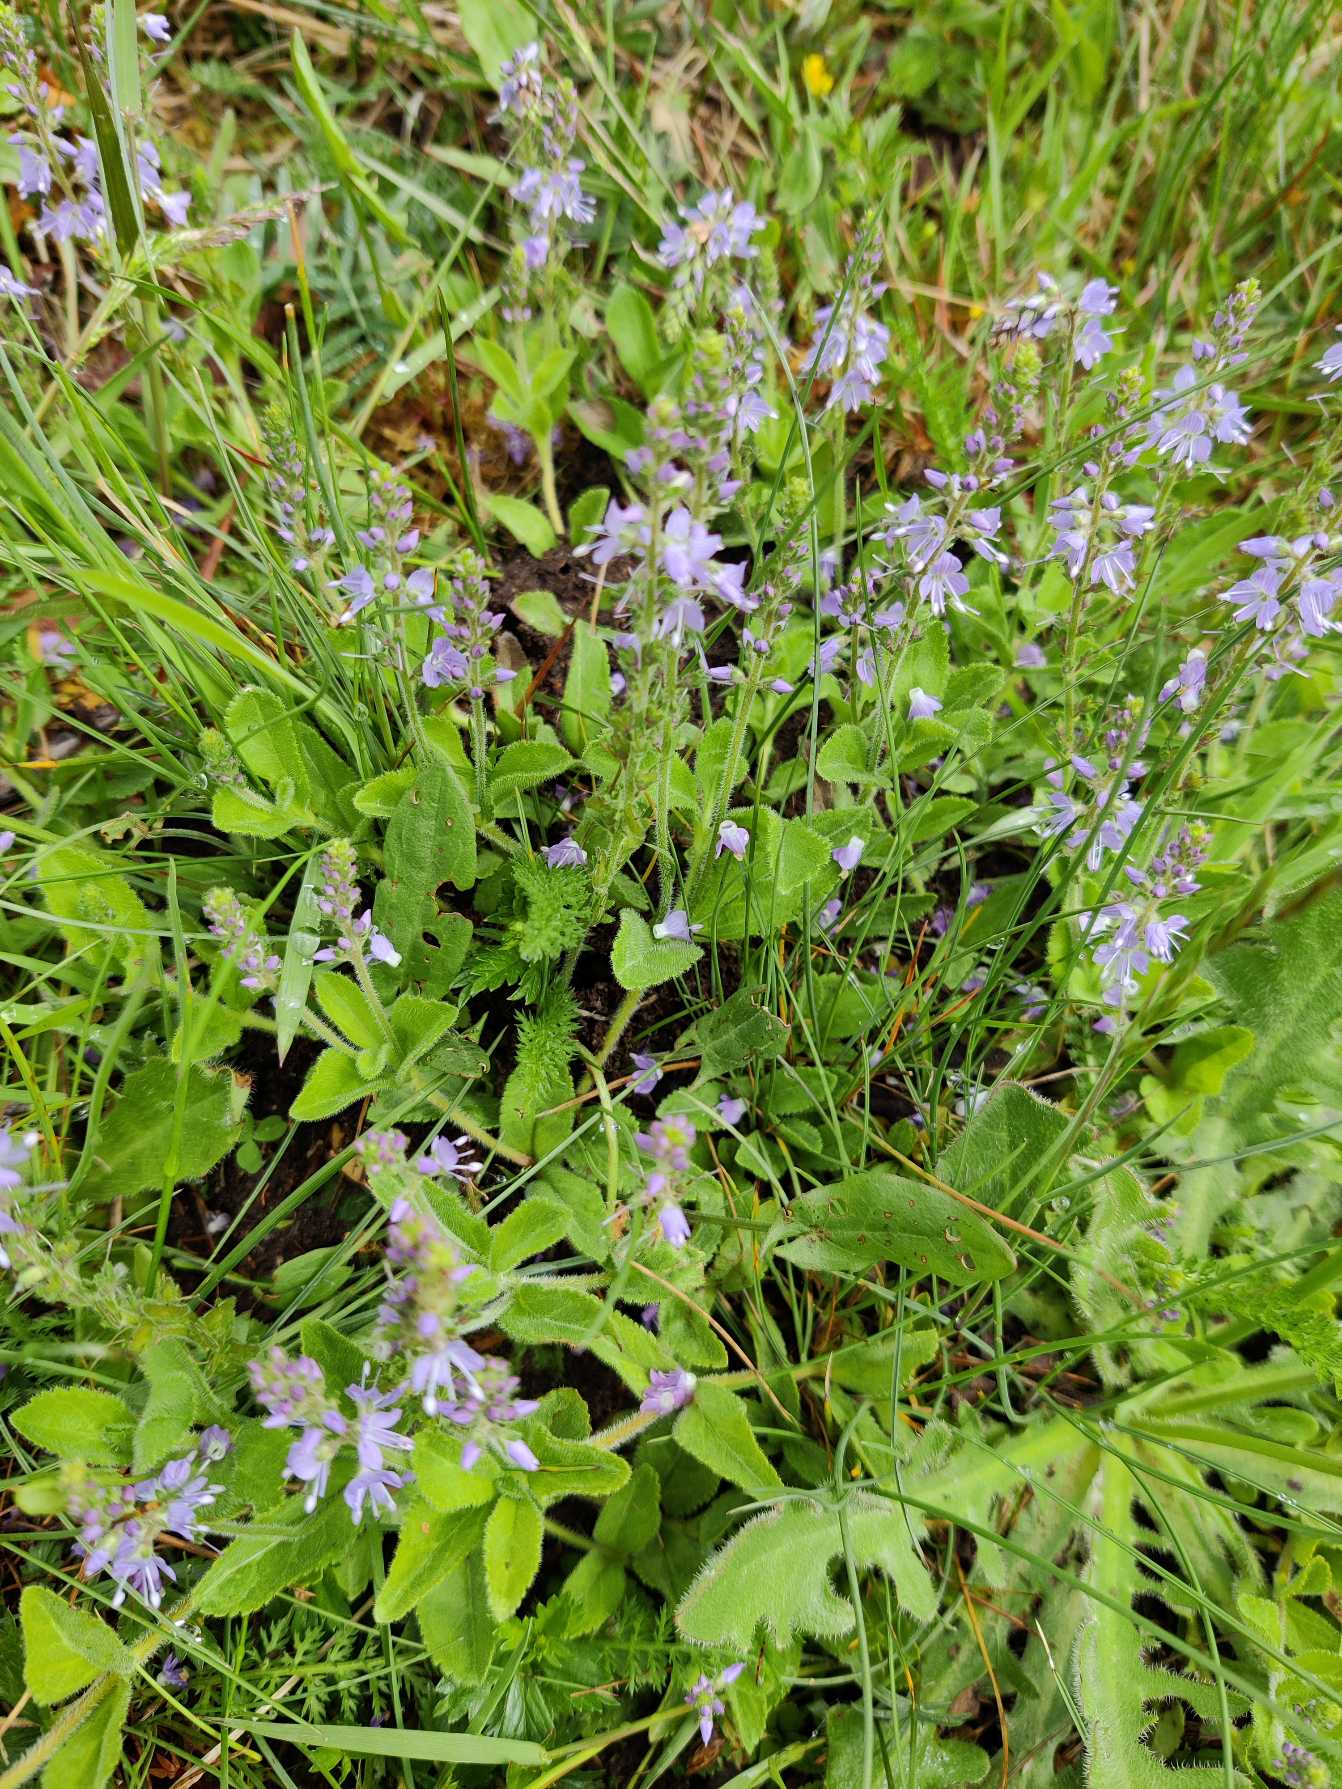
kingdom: Plantae
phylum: Tracheophyta
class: Magnoliopsida
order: Lamiales
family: Plantaginaceae
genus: Veronica
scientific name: Veronica officinalis
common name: Læge-ærenpris
